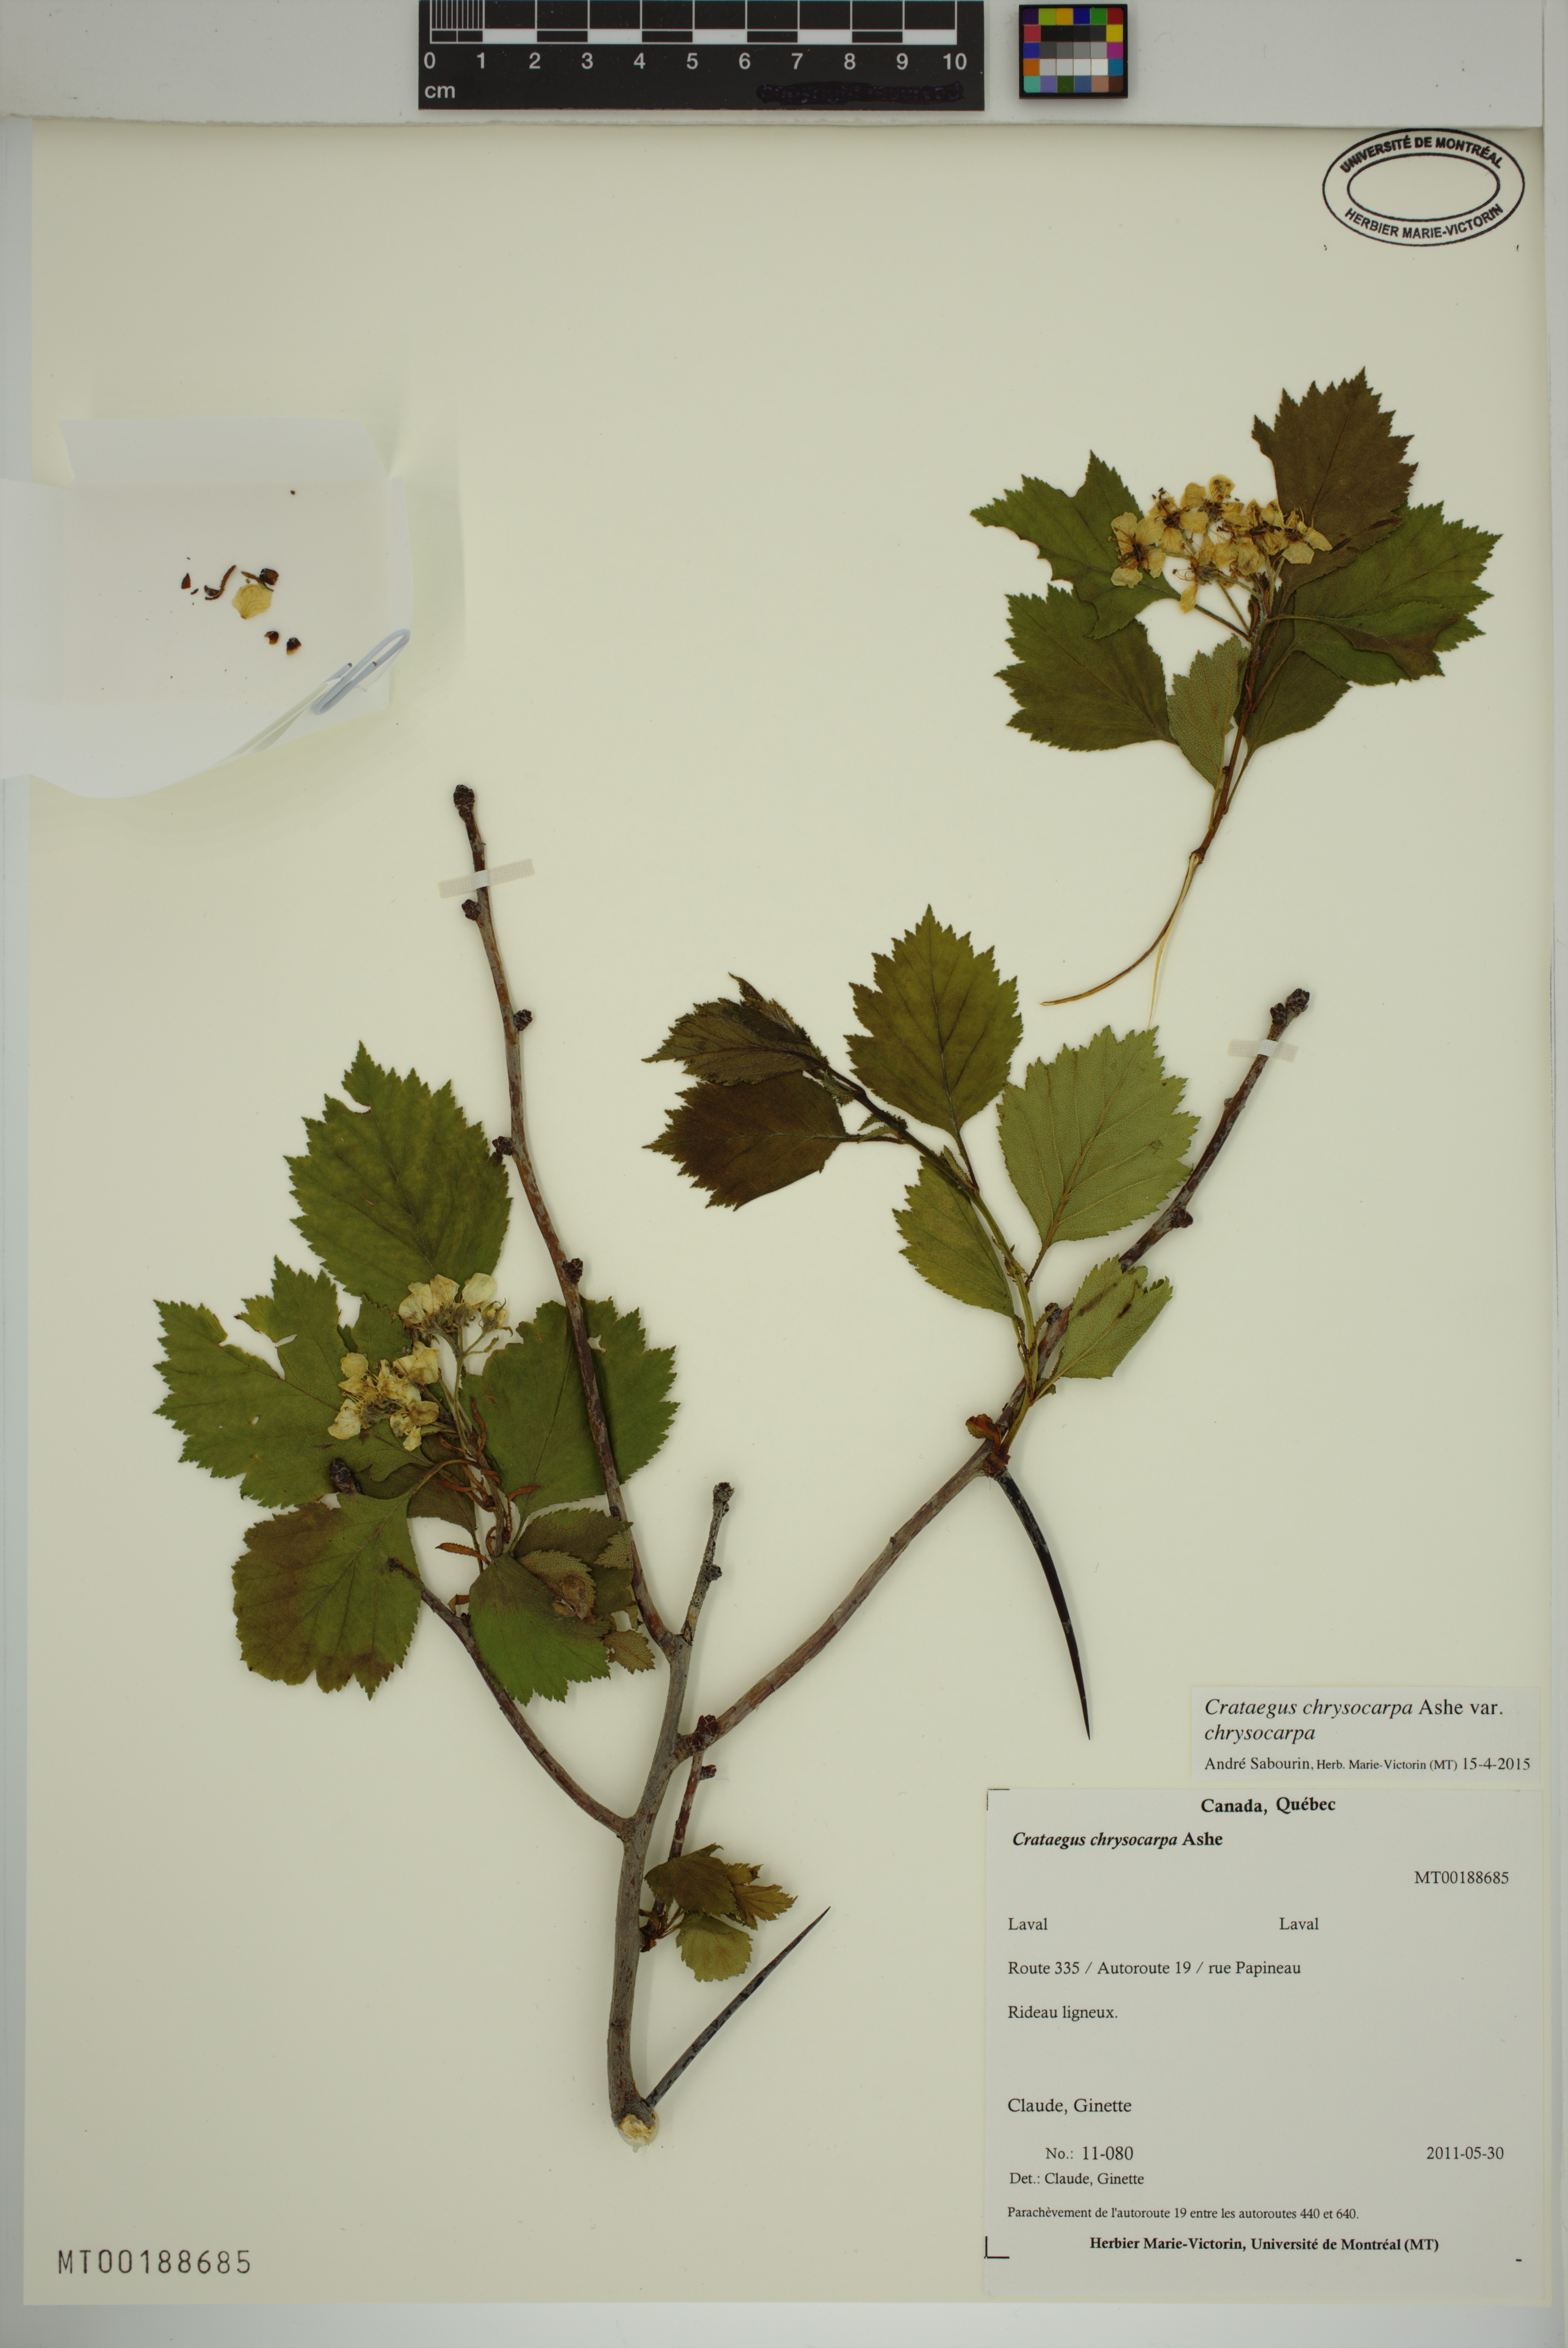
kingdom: Plantae
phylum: Tracheophyta
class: Magnoliopsida
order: Rosales
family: Rosaceae
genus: Crataegus
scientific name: Crataegus chrysocarpa
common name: Fire-berry hawthorn
